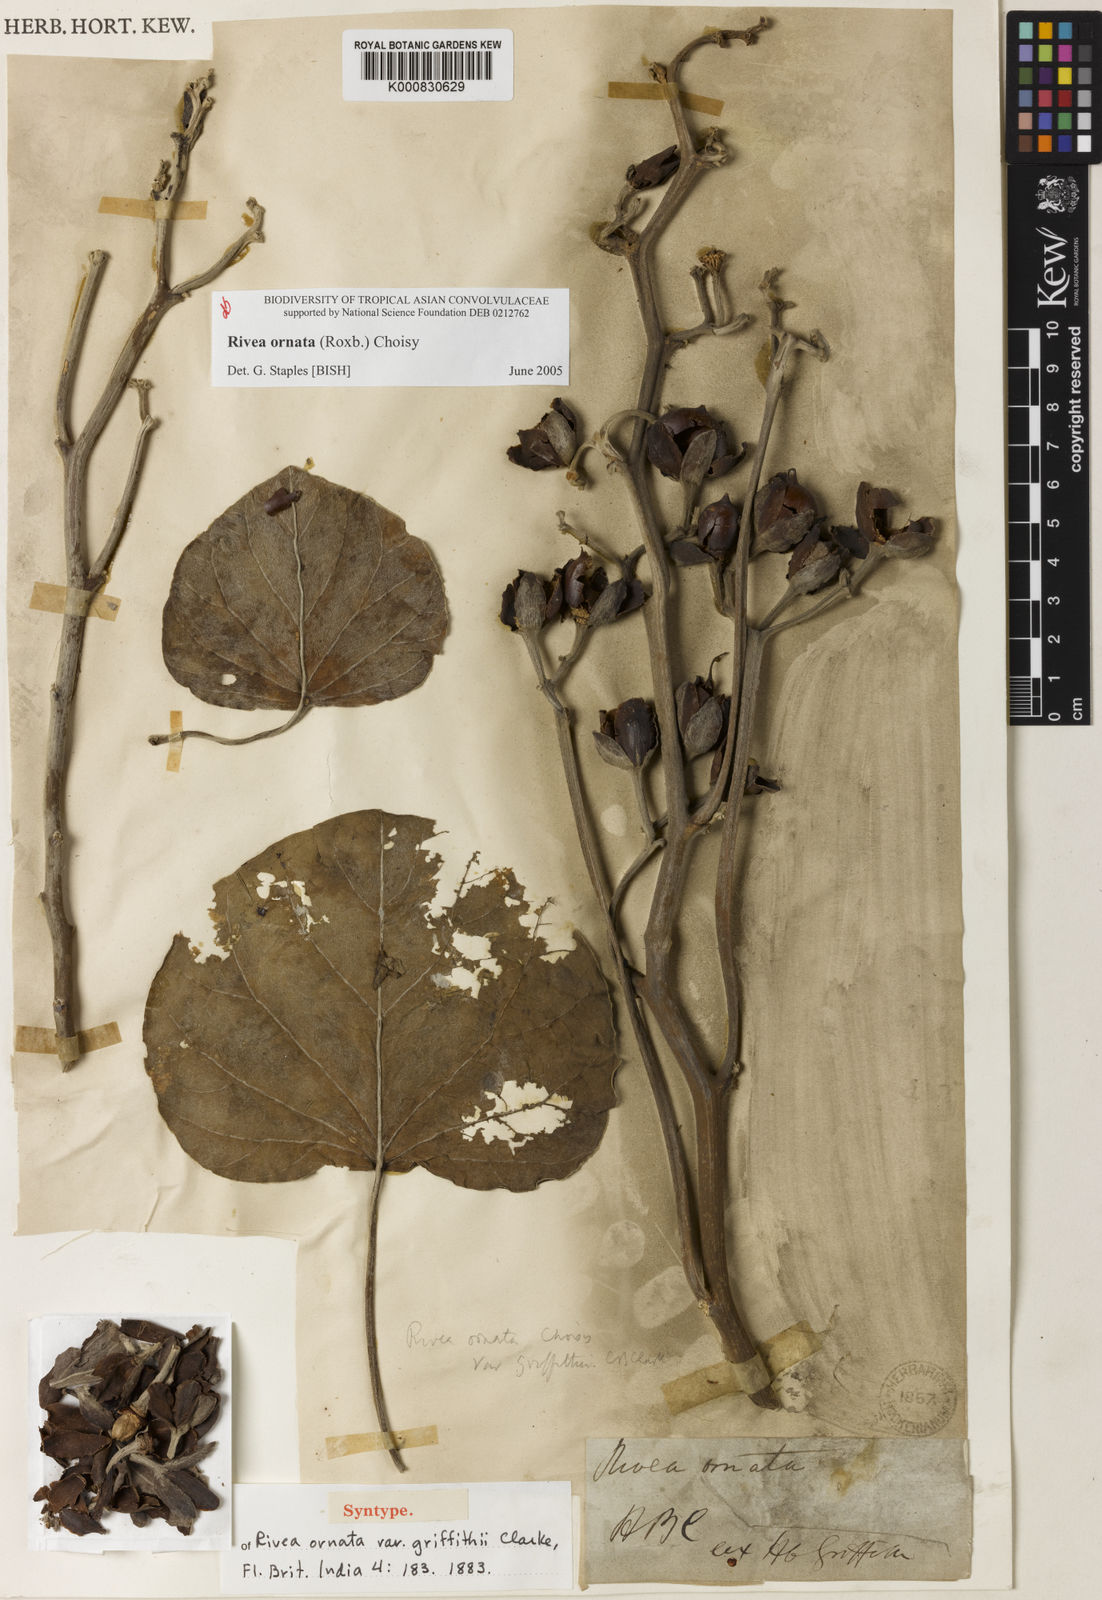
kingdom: Plantae
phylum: Tracheophyta
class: Magnoliopsida
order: Solanales
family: Convolvulaceae
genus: Rivea
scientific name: Rivea ornata
